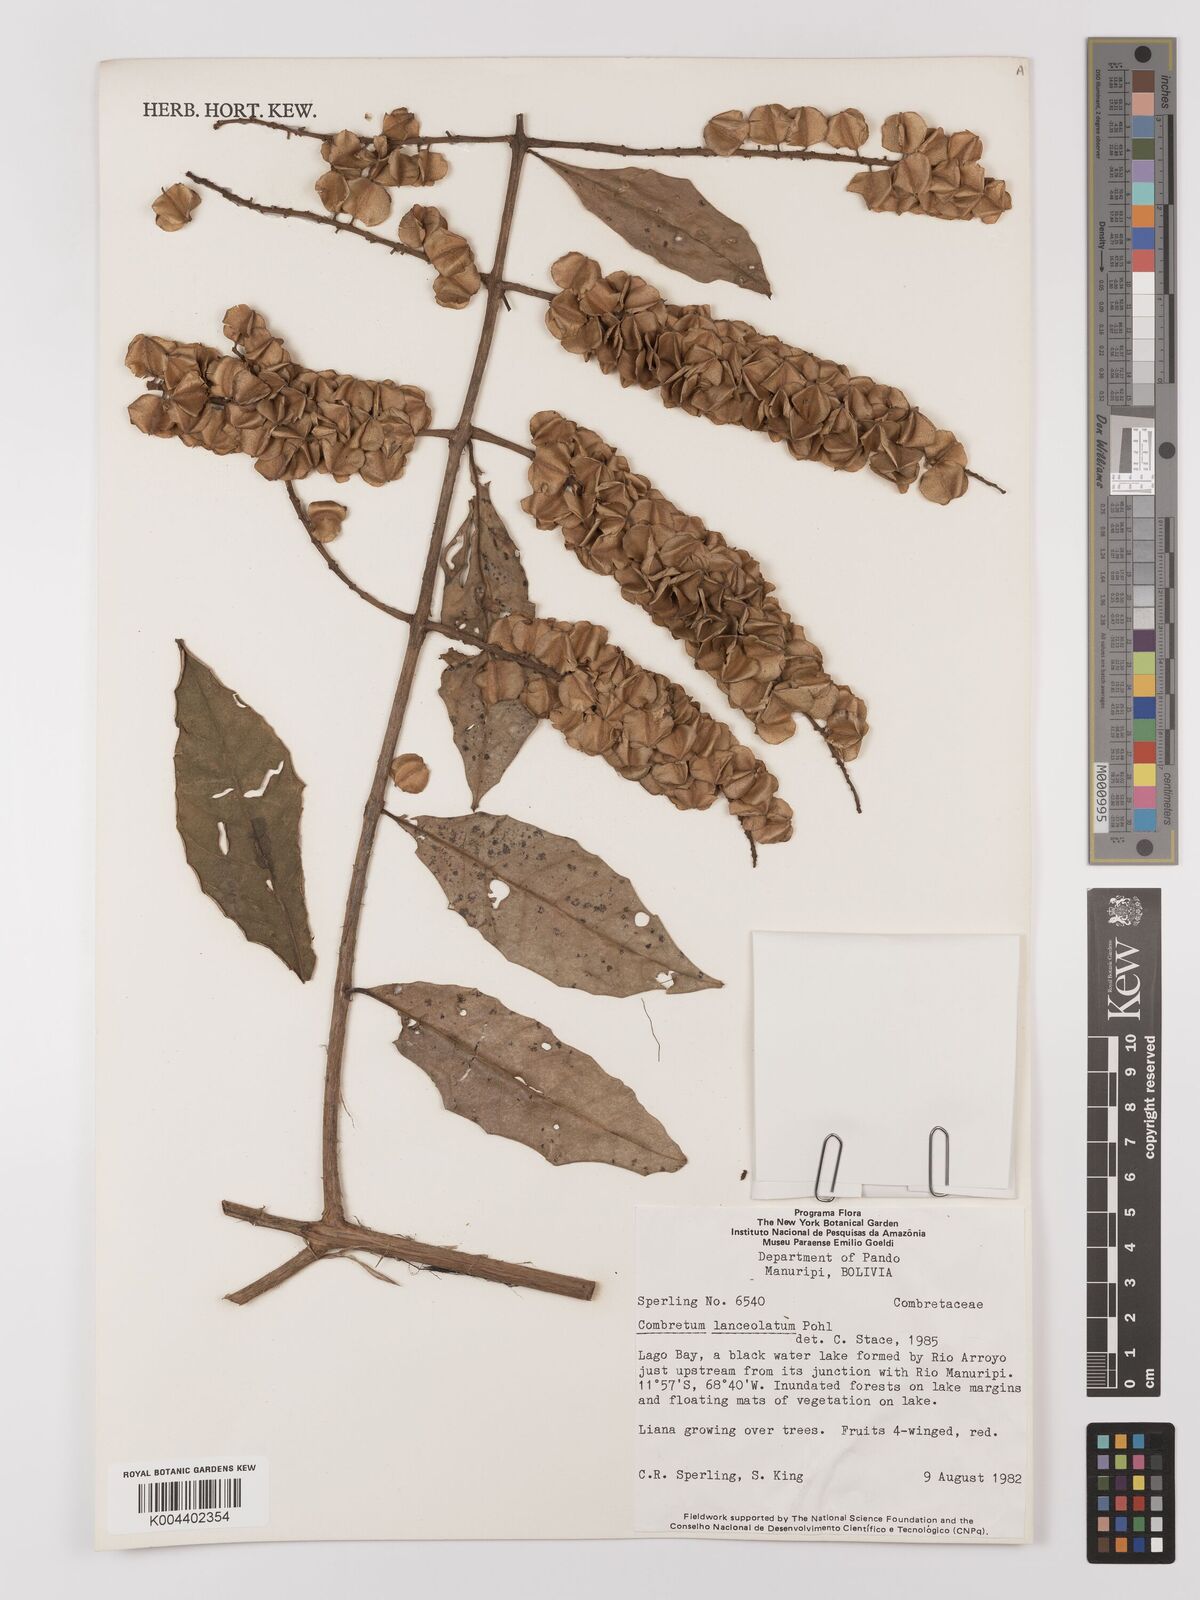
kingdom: Plantae
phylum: Tracheophyta
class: Magnoliopsida
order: Myrtales
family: Combretaceae
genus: Combretum
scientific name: Combretum lanceolatum
